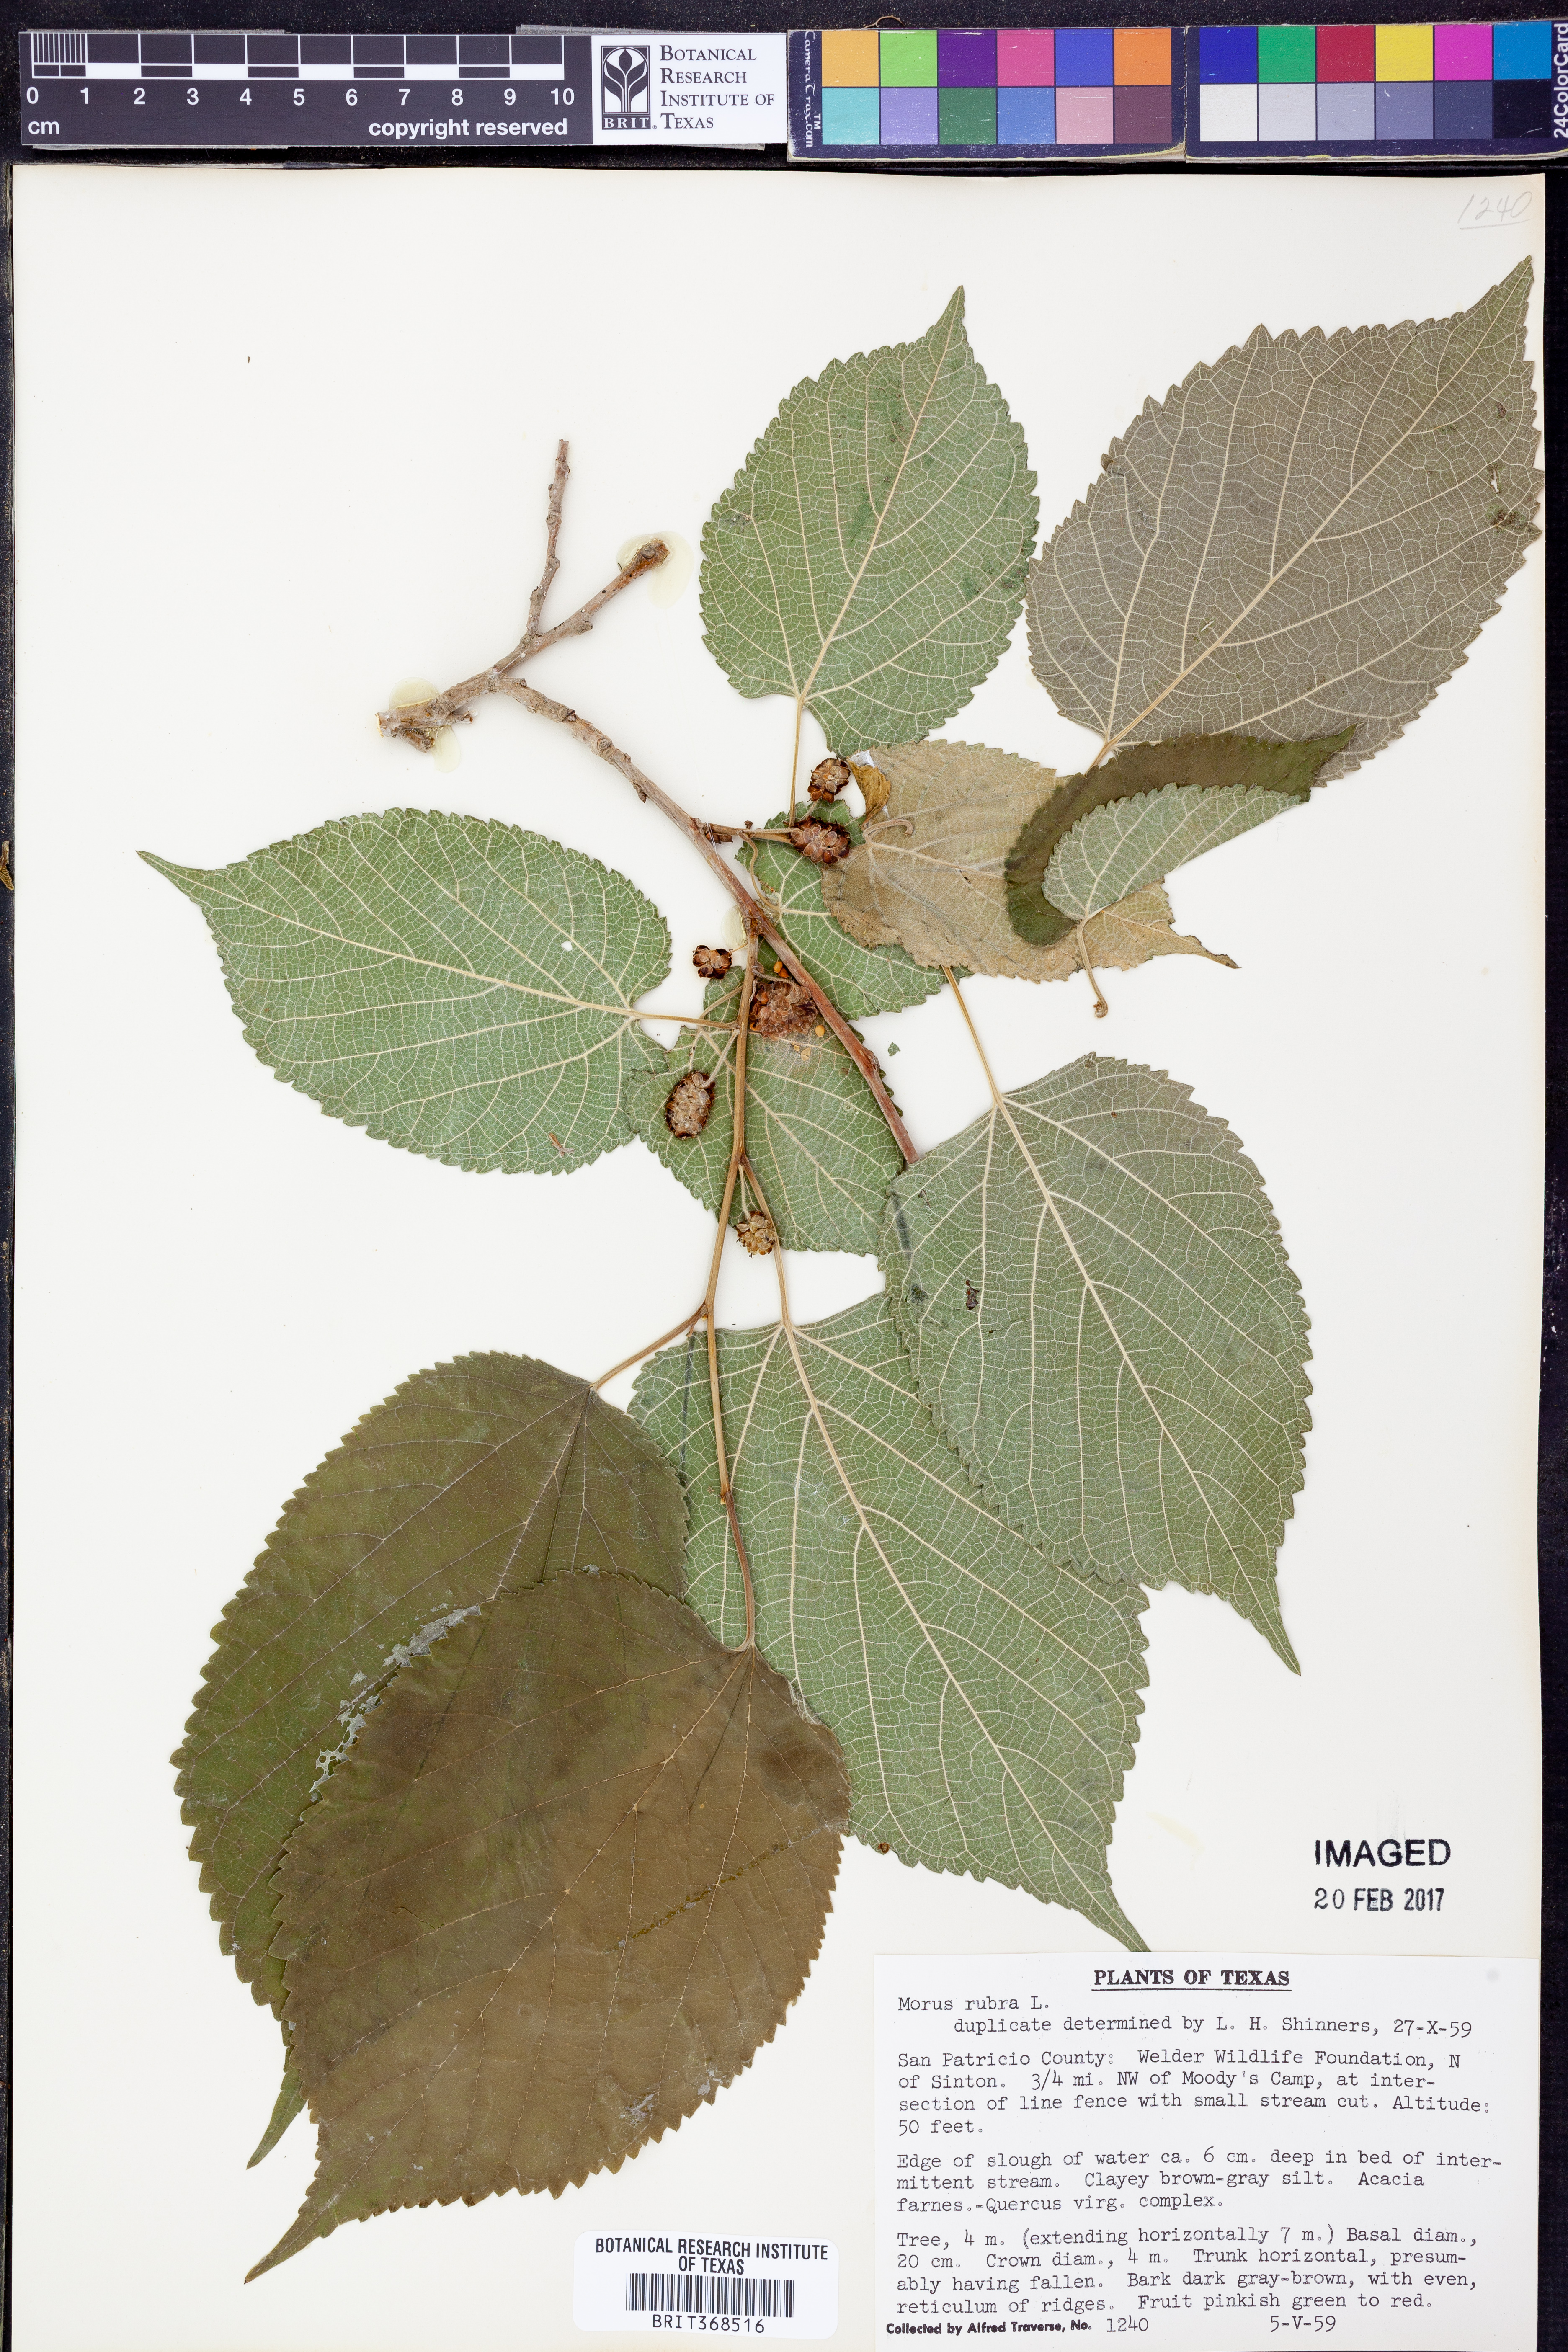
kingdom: Plantae
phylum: Tracheophyta
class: Magnoliopsida
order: Rosales
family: Moraceae
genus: Morus
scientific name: Morus rubra
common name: Red mulberry
